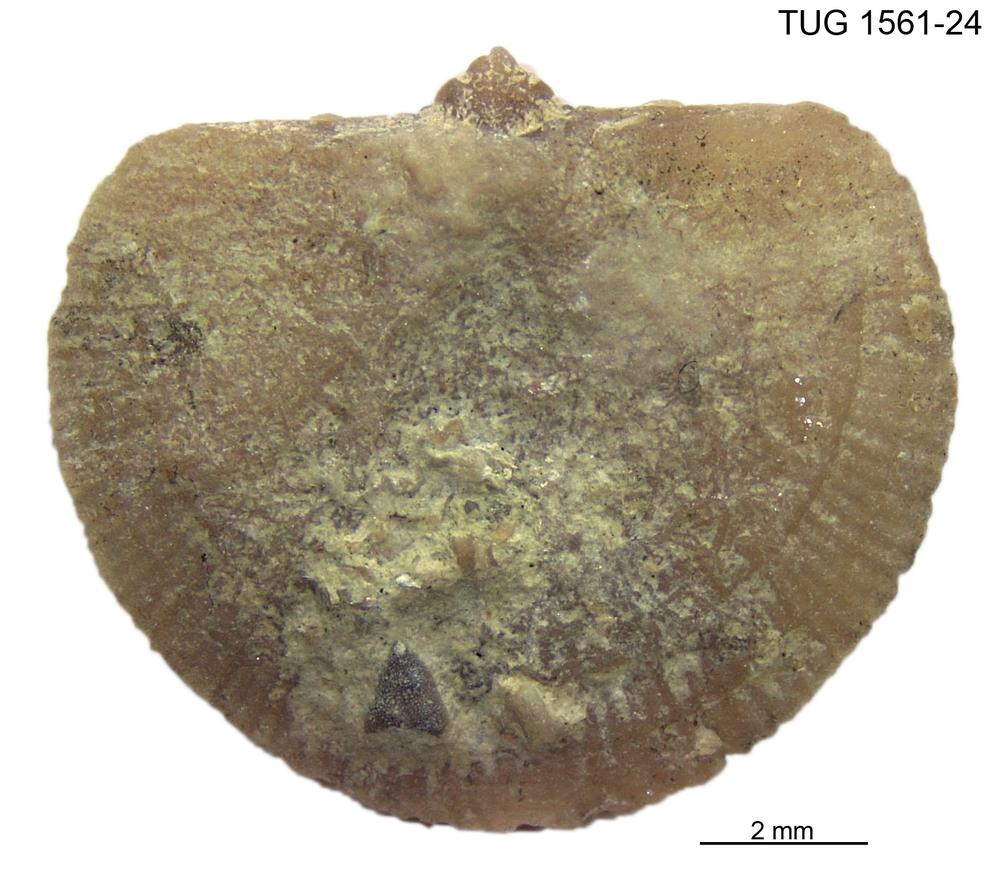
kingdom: Animalia
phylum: Brachiopoda
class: Rhynchonellata
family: Dalmanellidae
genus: Visbyella
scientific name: Visbyella Orthis visbyensis
